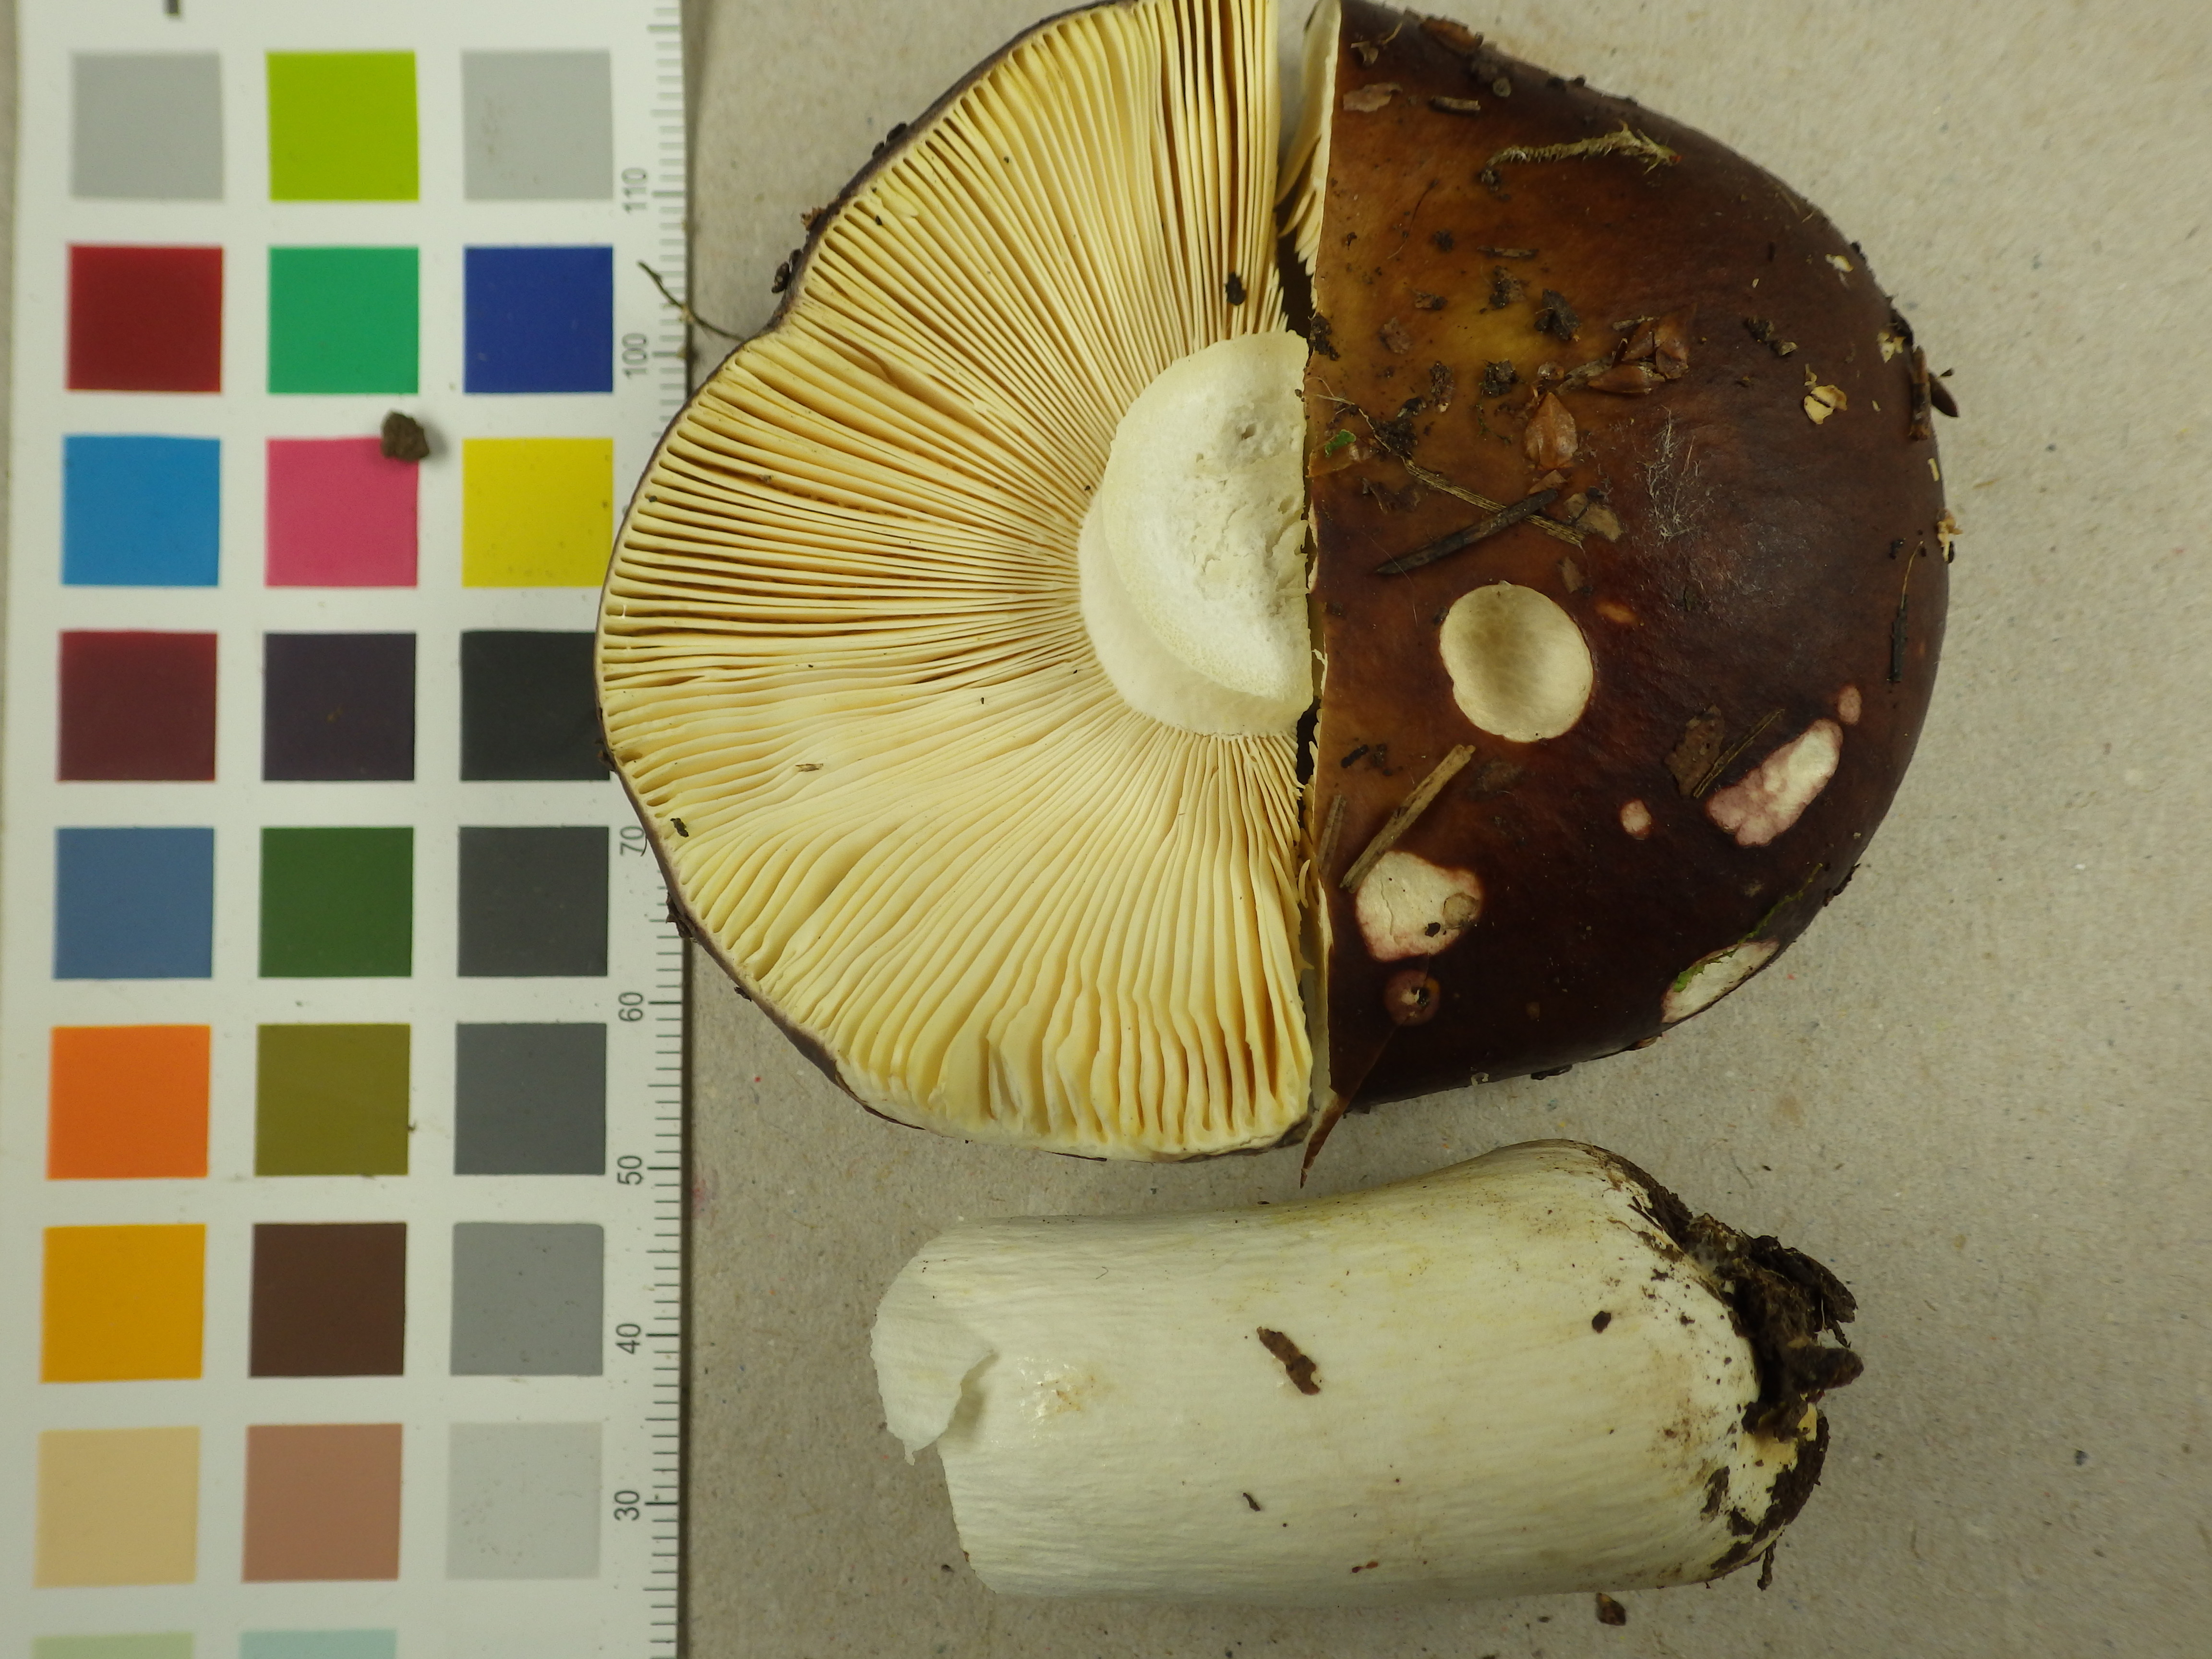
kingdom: Fungi
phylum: Basidiomycota
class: Agaricomycetes
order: Russulales
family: Russulaceae
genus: Russula
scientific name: Russula olivascens
